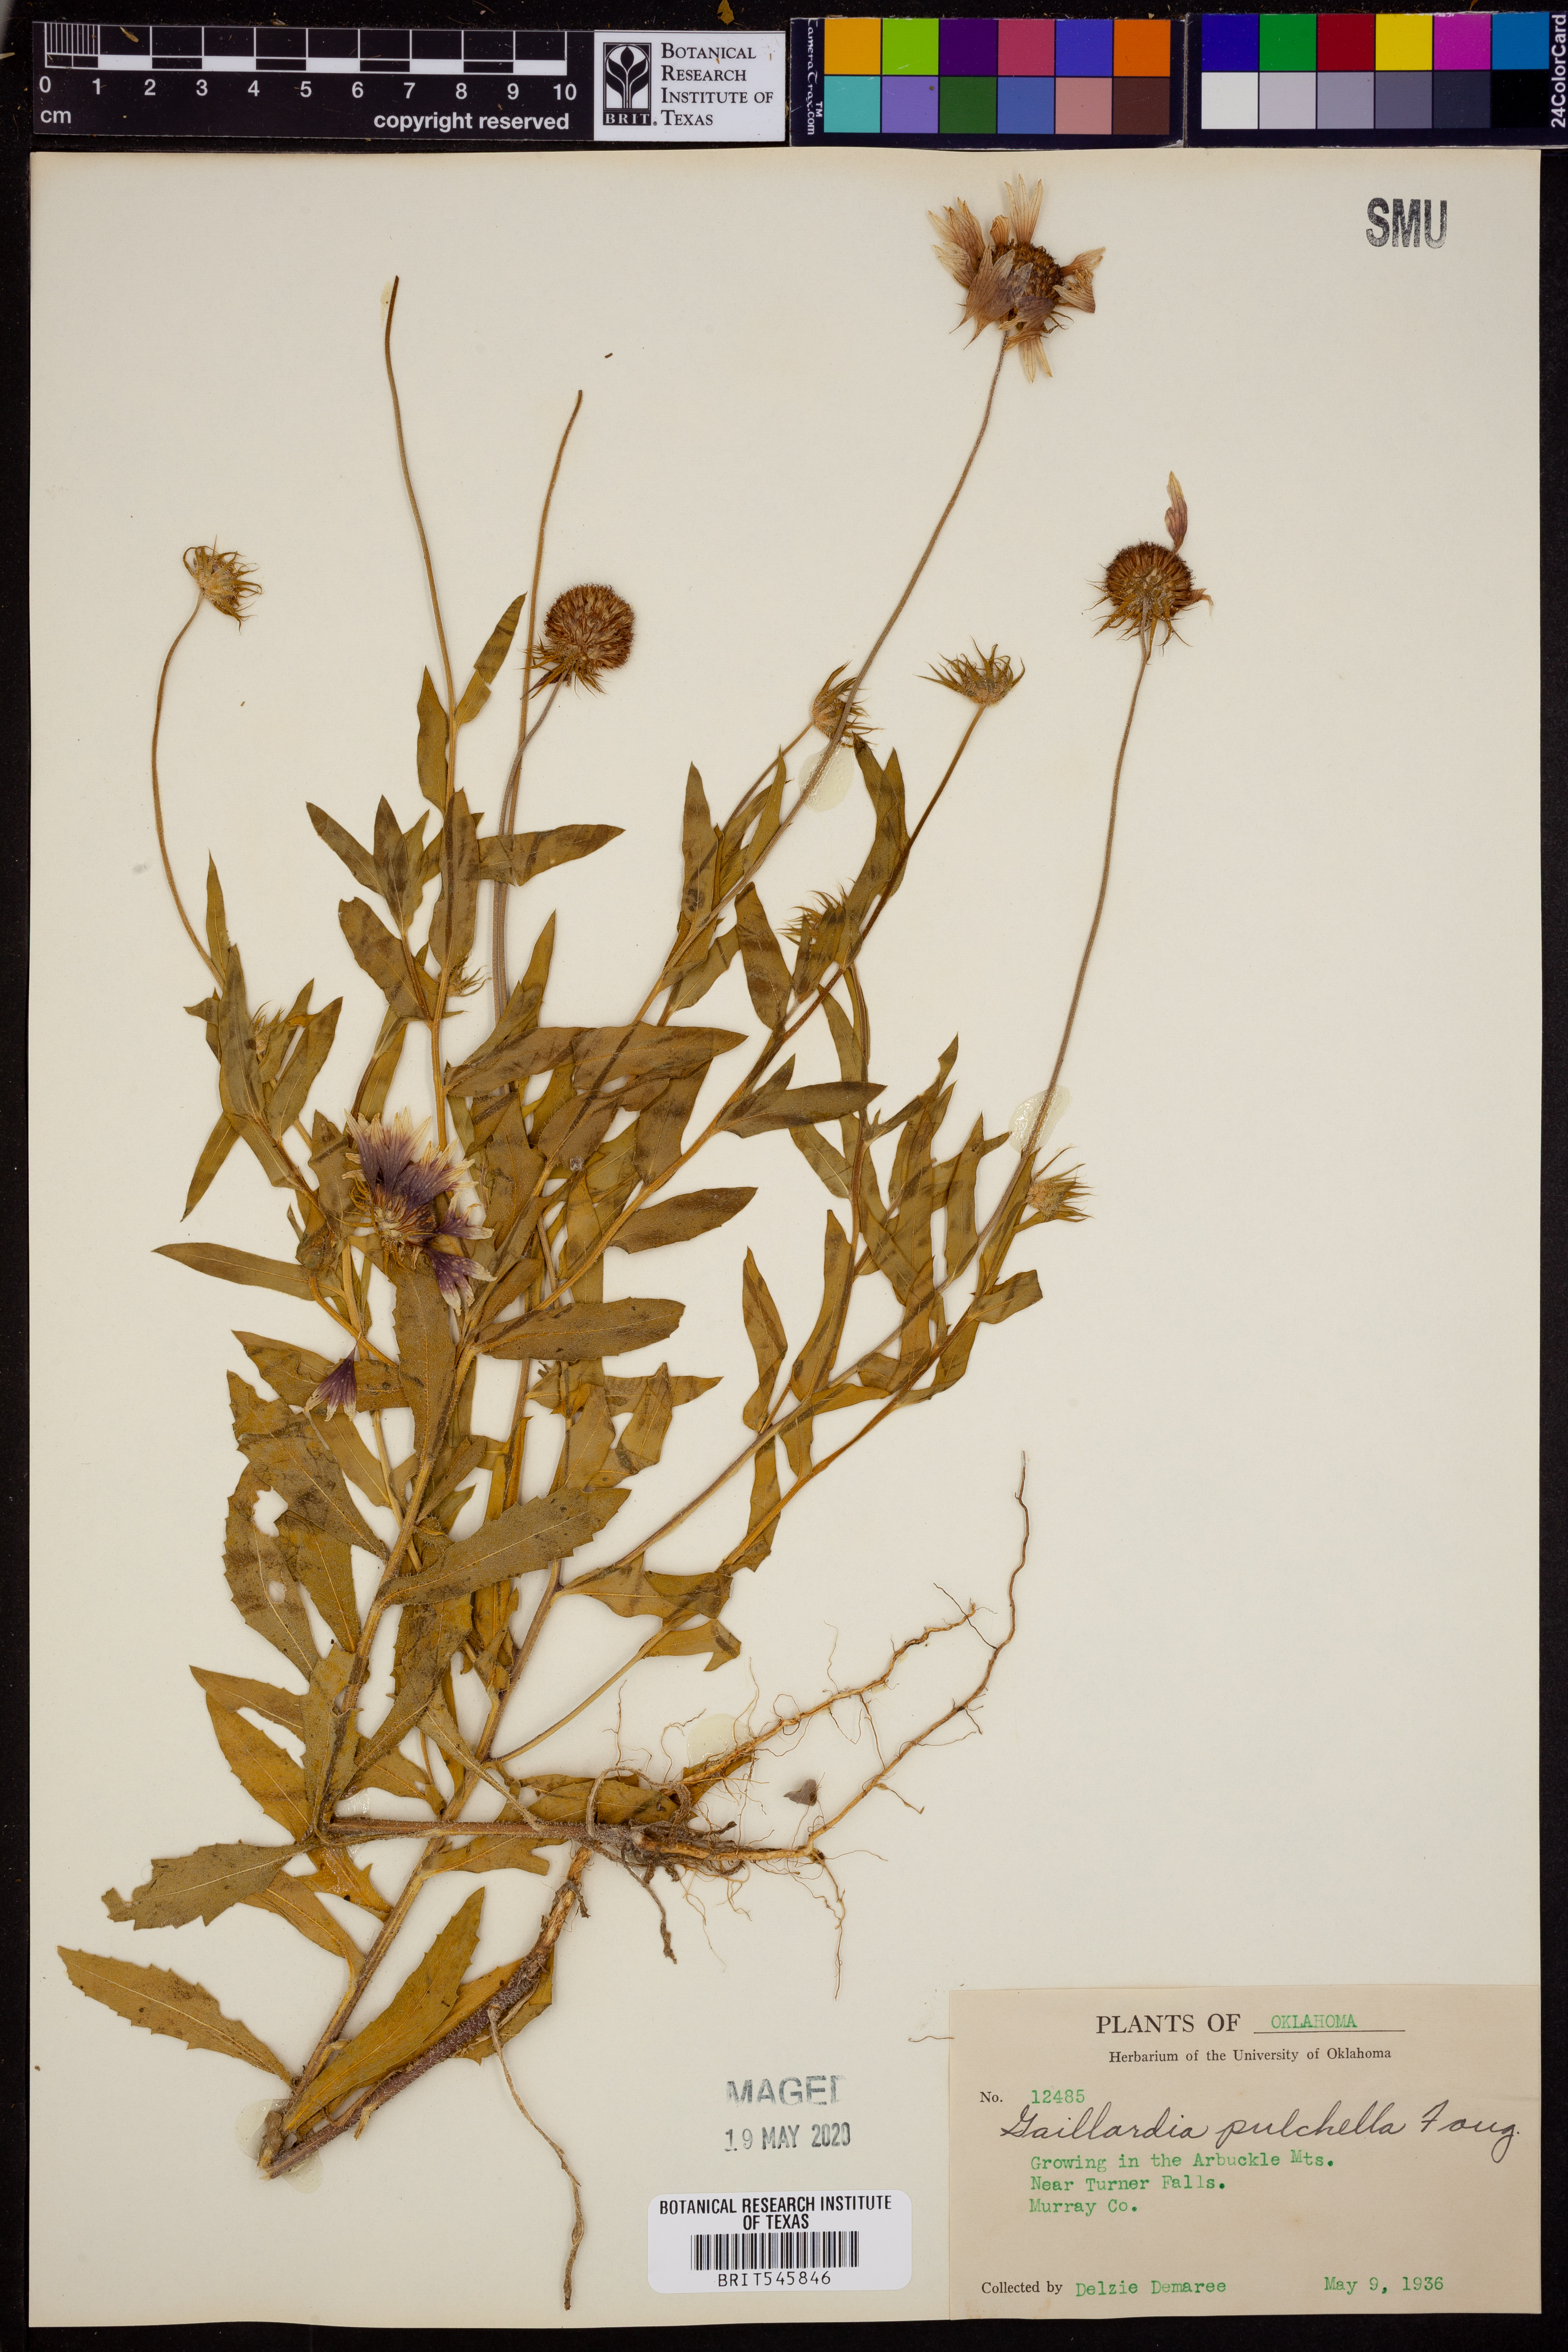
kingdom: Plantae
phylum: Tracheophyta
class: Magnoliopsida
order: Asterales
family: Asteraceae
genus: Gaillardia
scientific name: Gaillardia pulchella
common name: Firewheel
